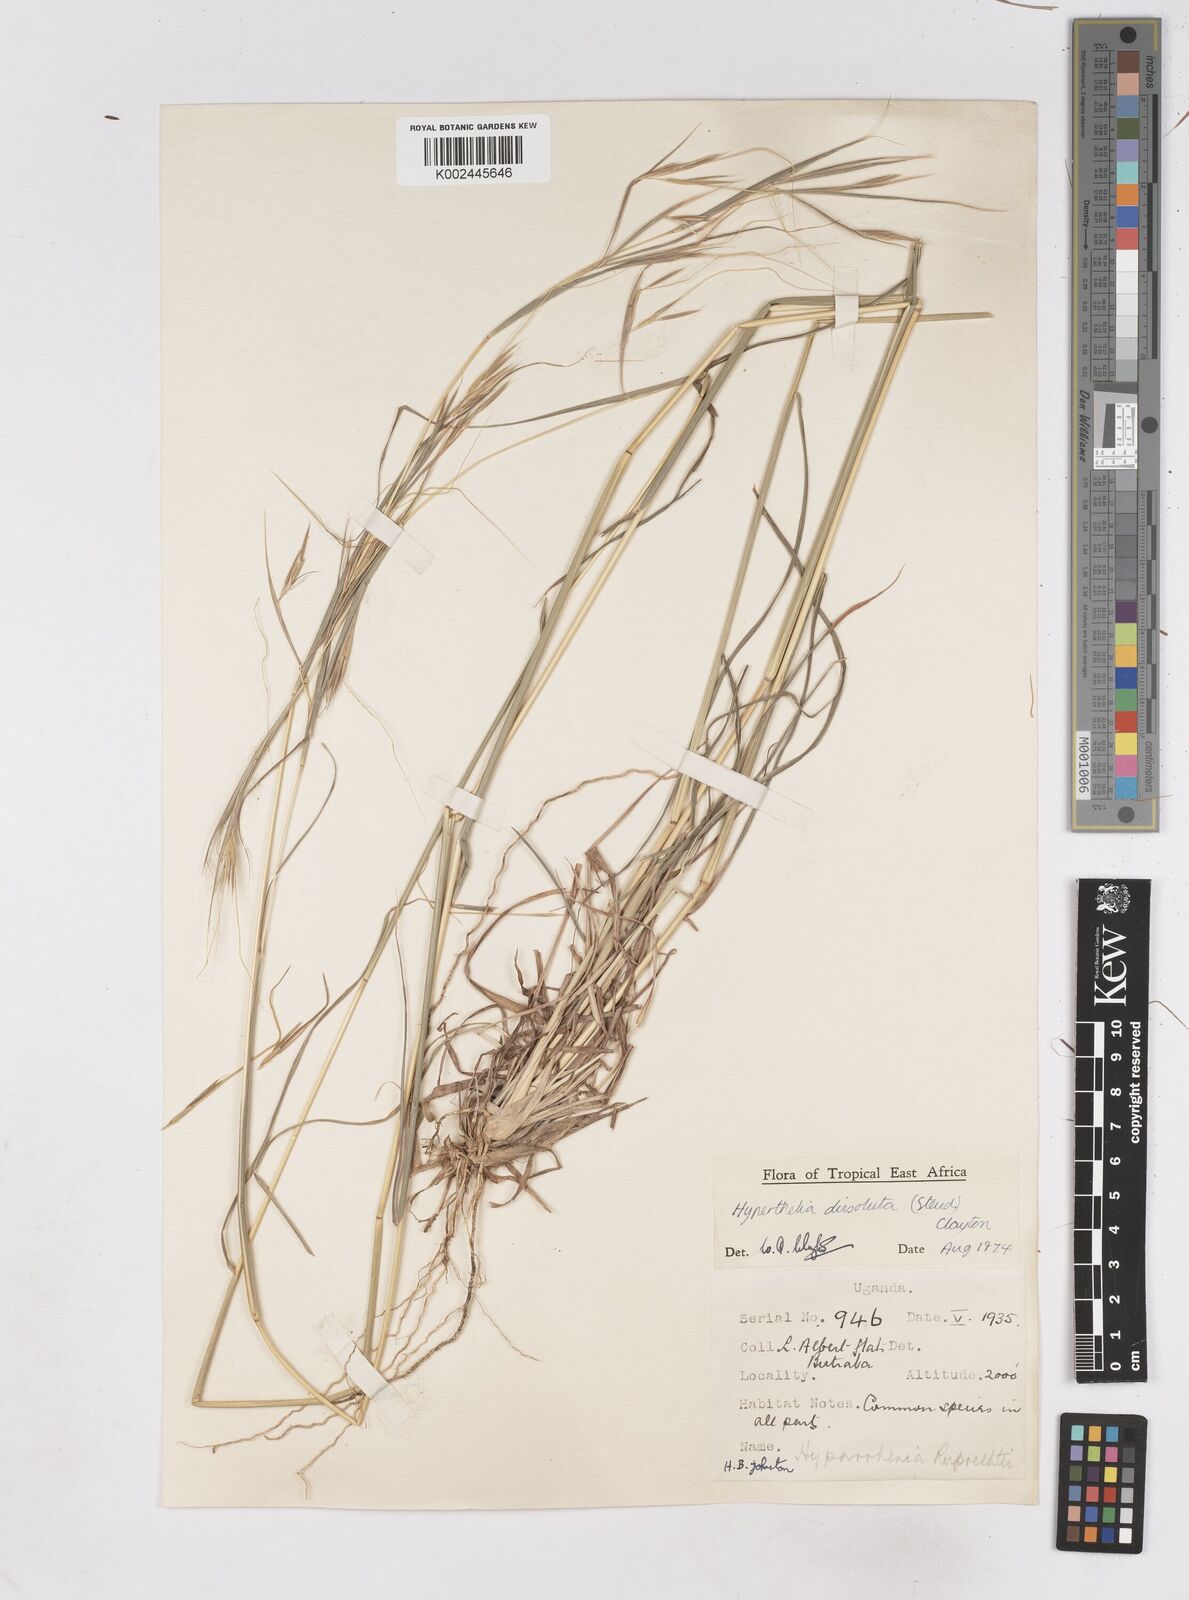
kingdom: Plantae
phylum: Tracheophyta
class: Liliopsida
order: Poales
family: Poaceae
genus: Hyperthelia
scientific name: Hyperthelia dissoluta
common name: Yellow thatching grass
